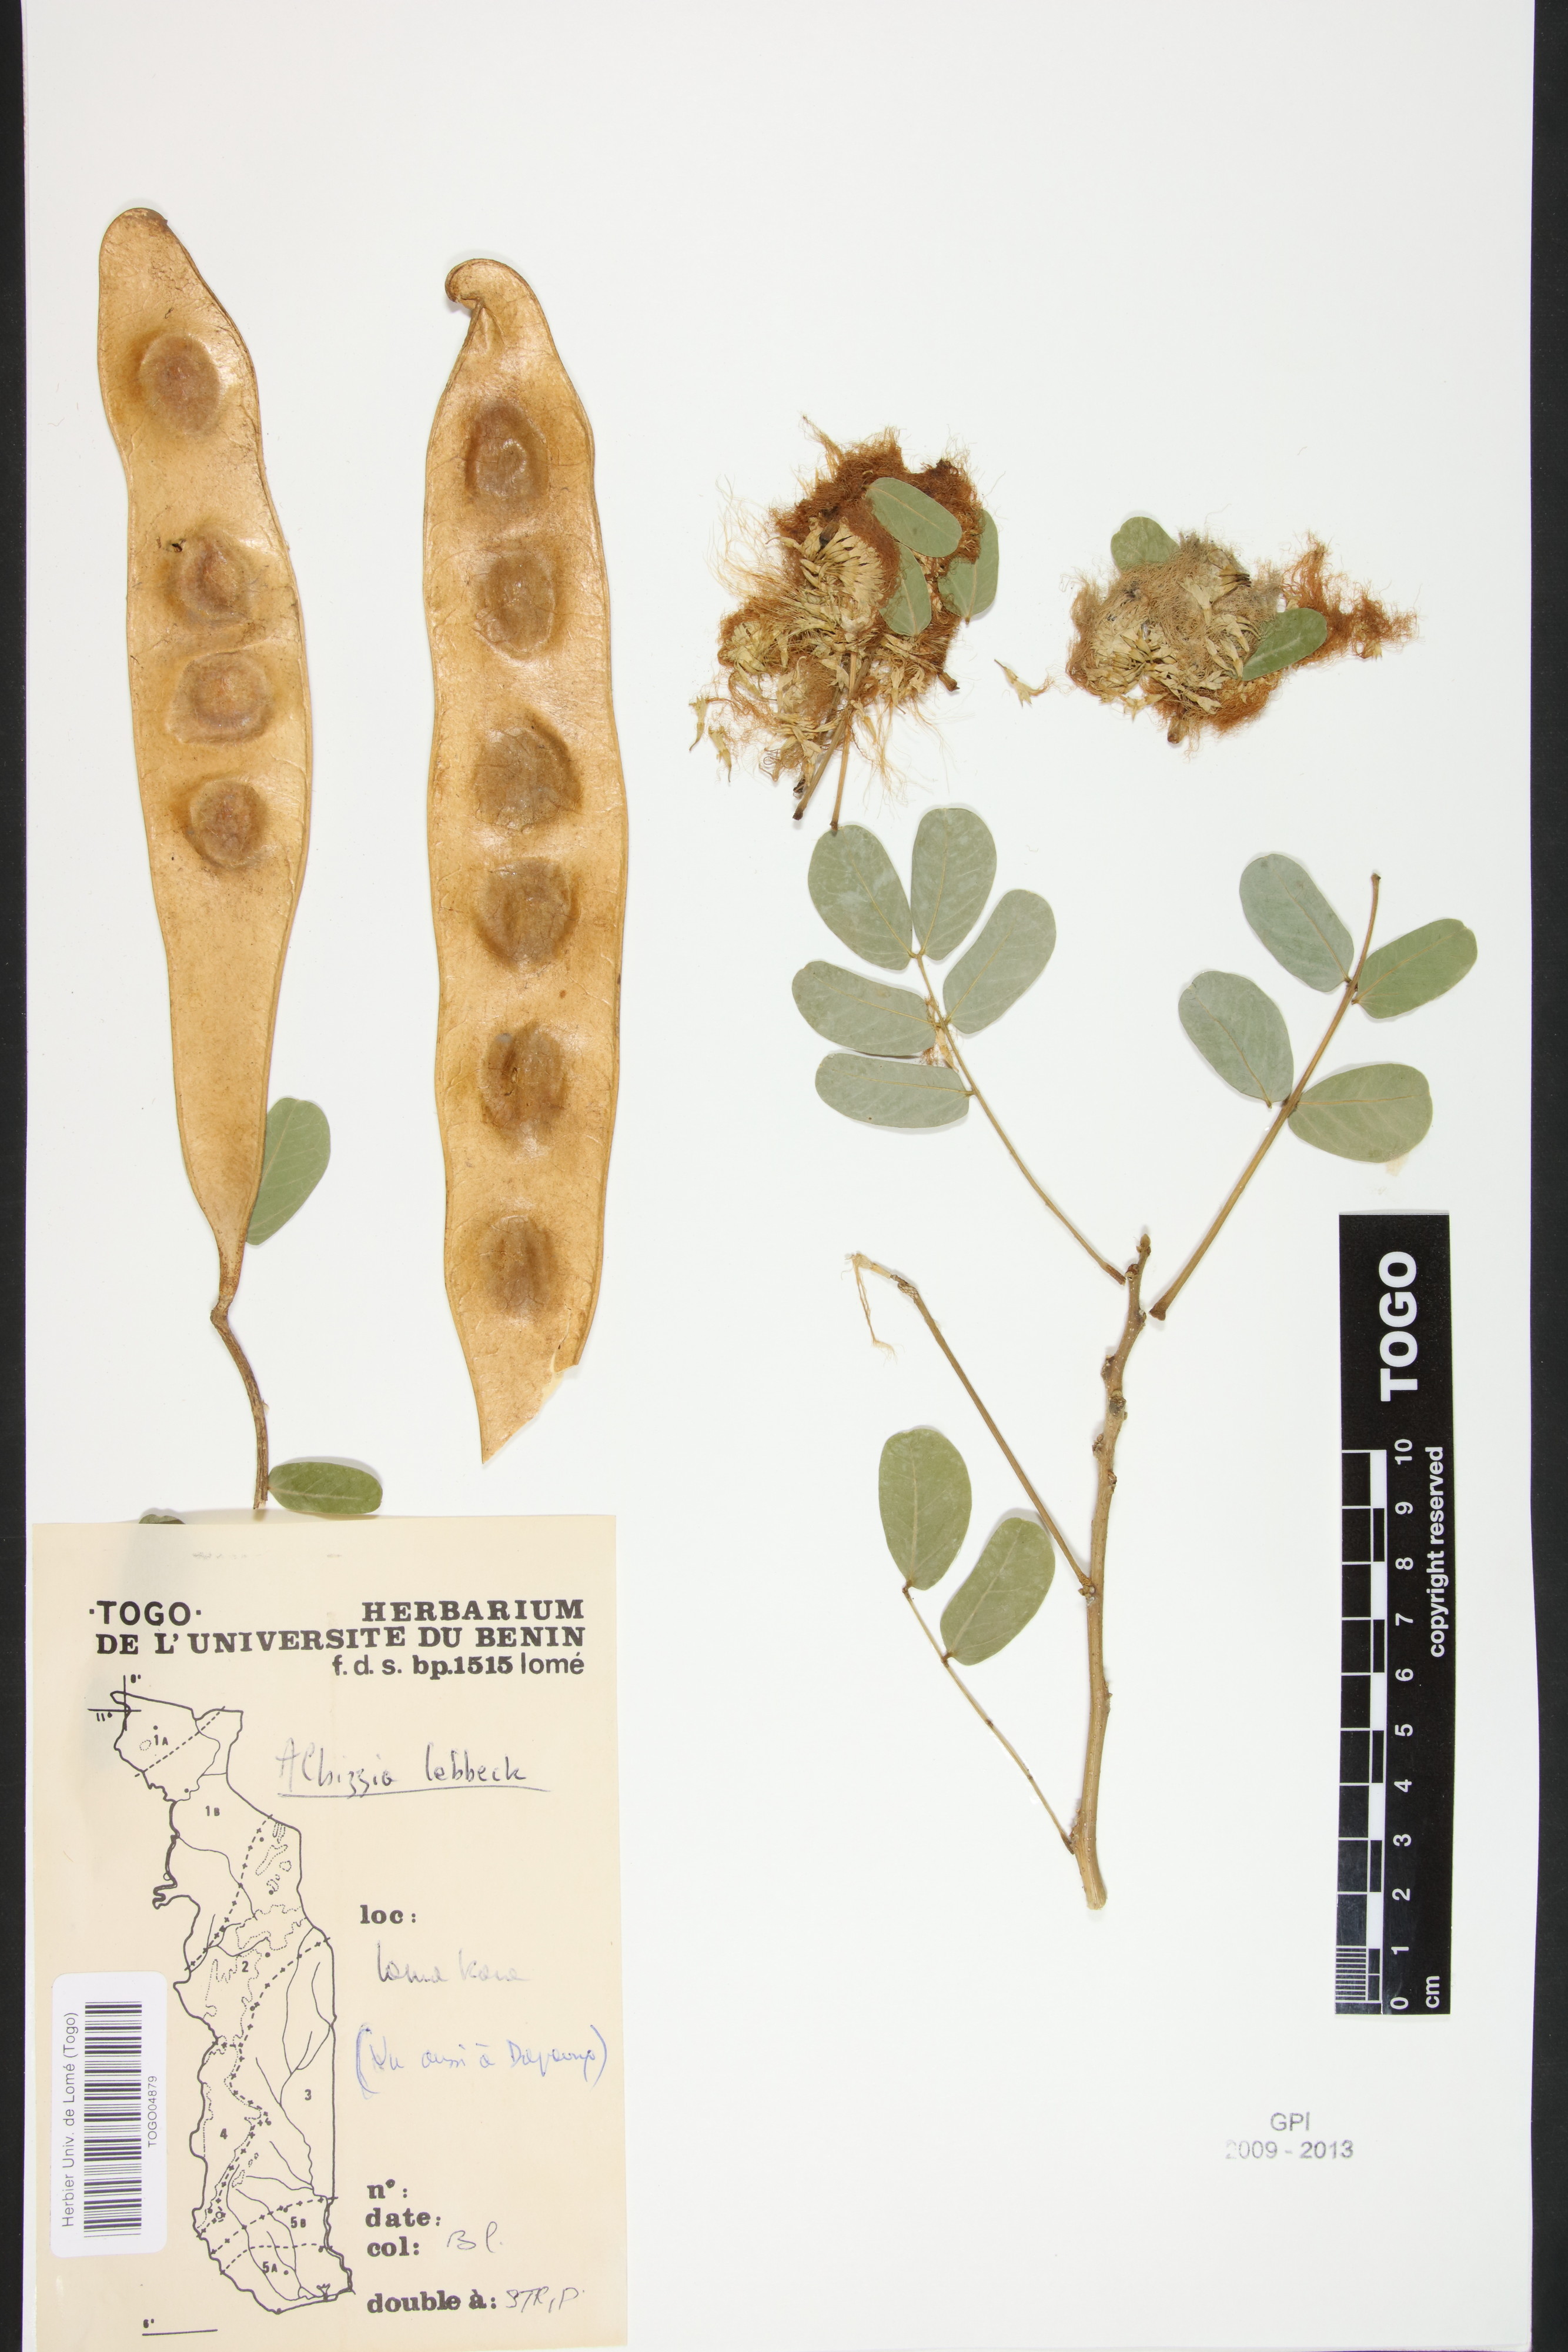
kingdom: Plantae
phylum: Tracheophyta
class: Magnoliopsida
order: Fabales
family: Fabaceae
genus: Albizia
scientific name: Albizia lebbeck
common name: Woman's tongue
